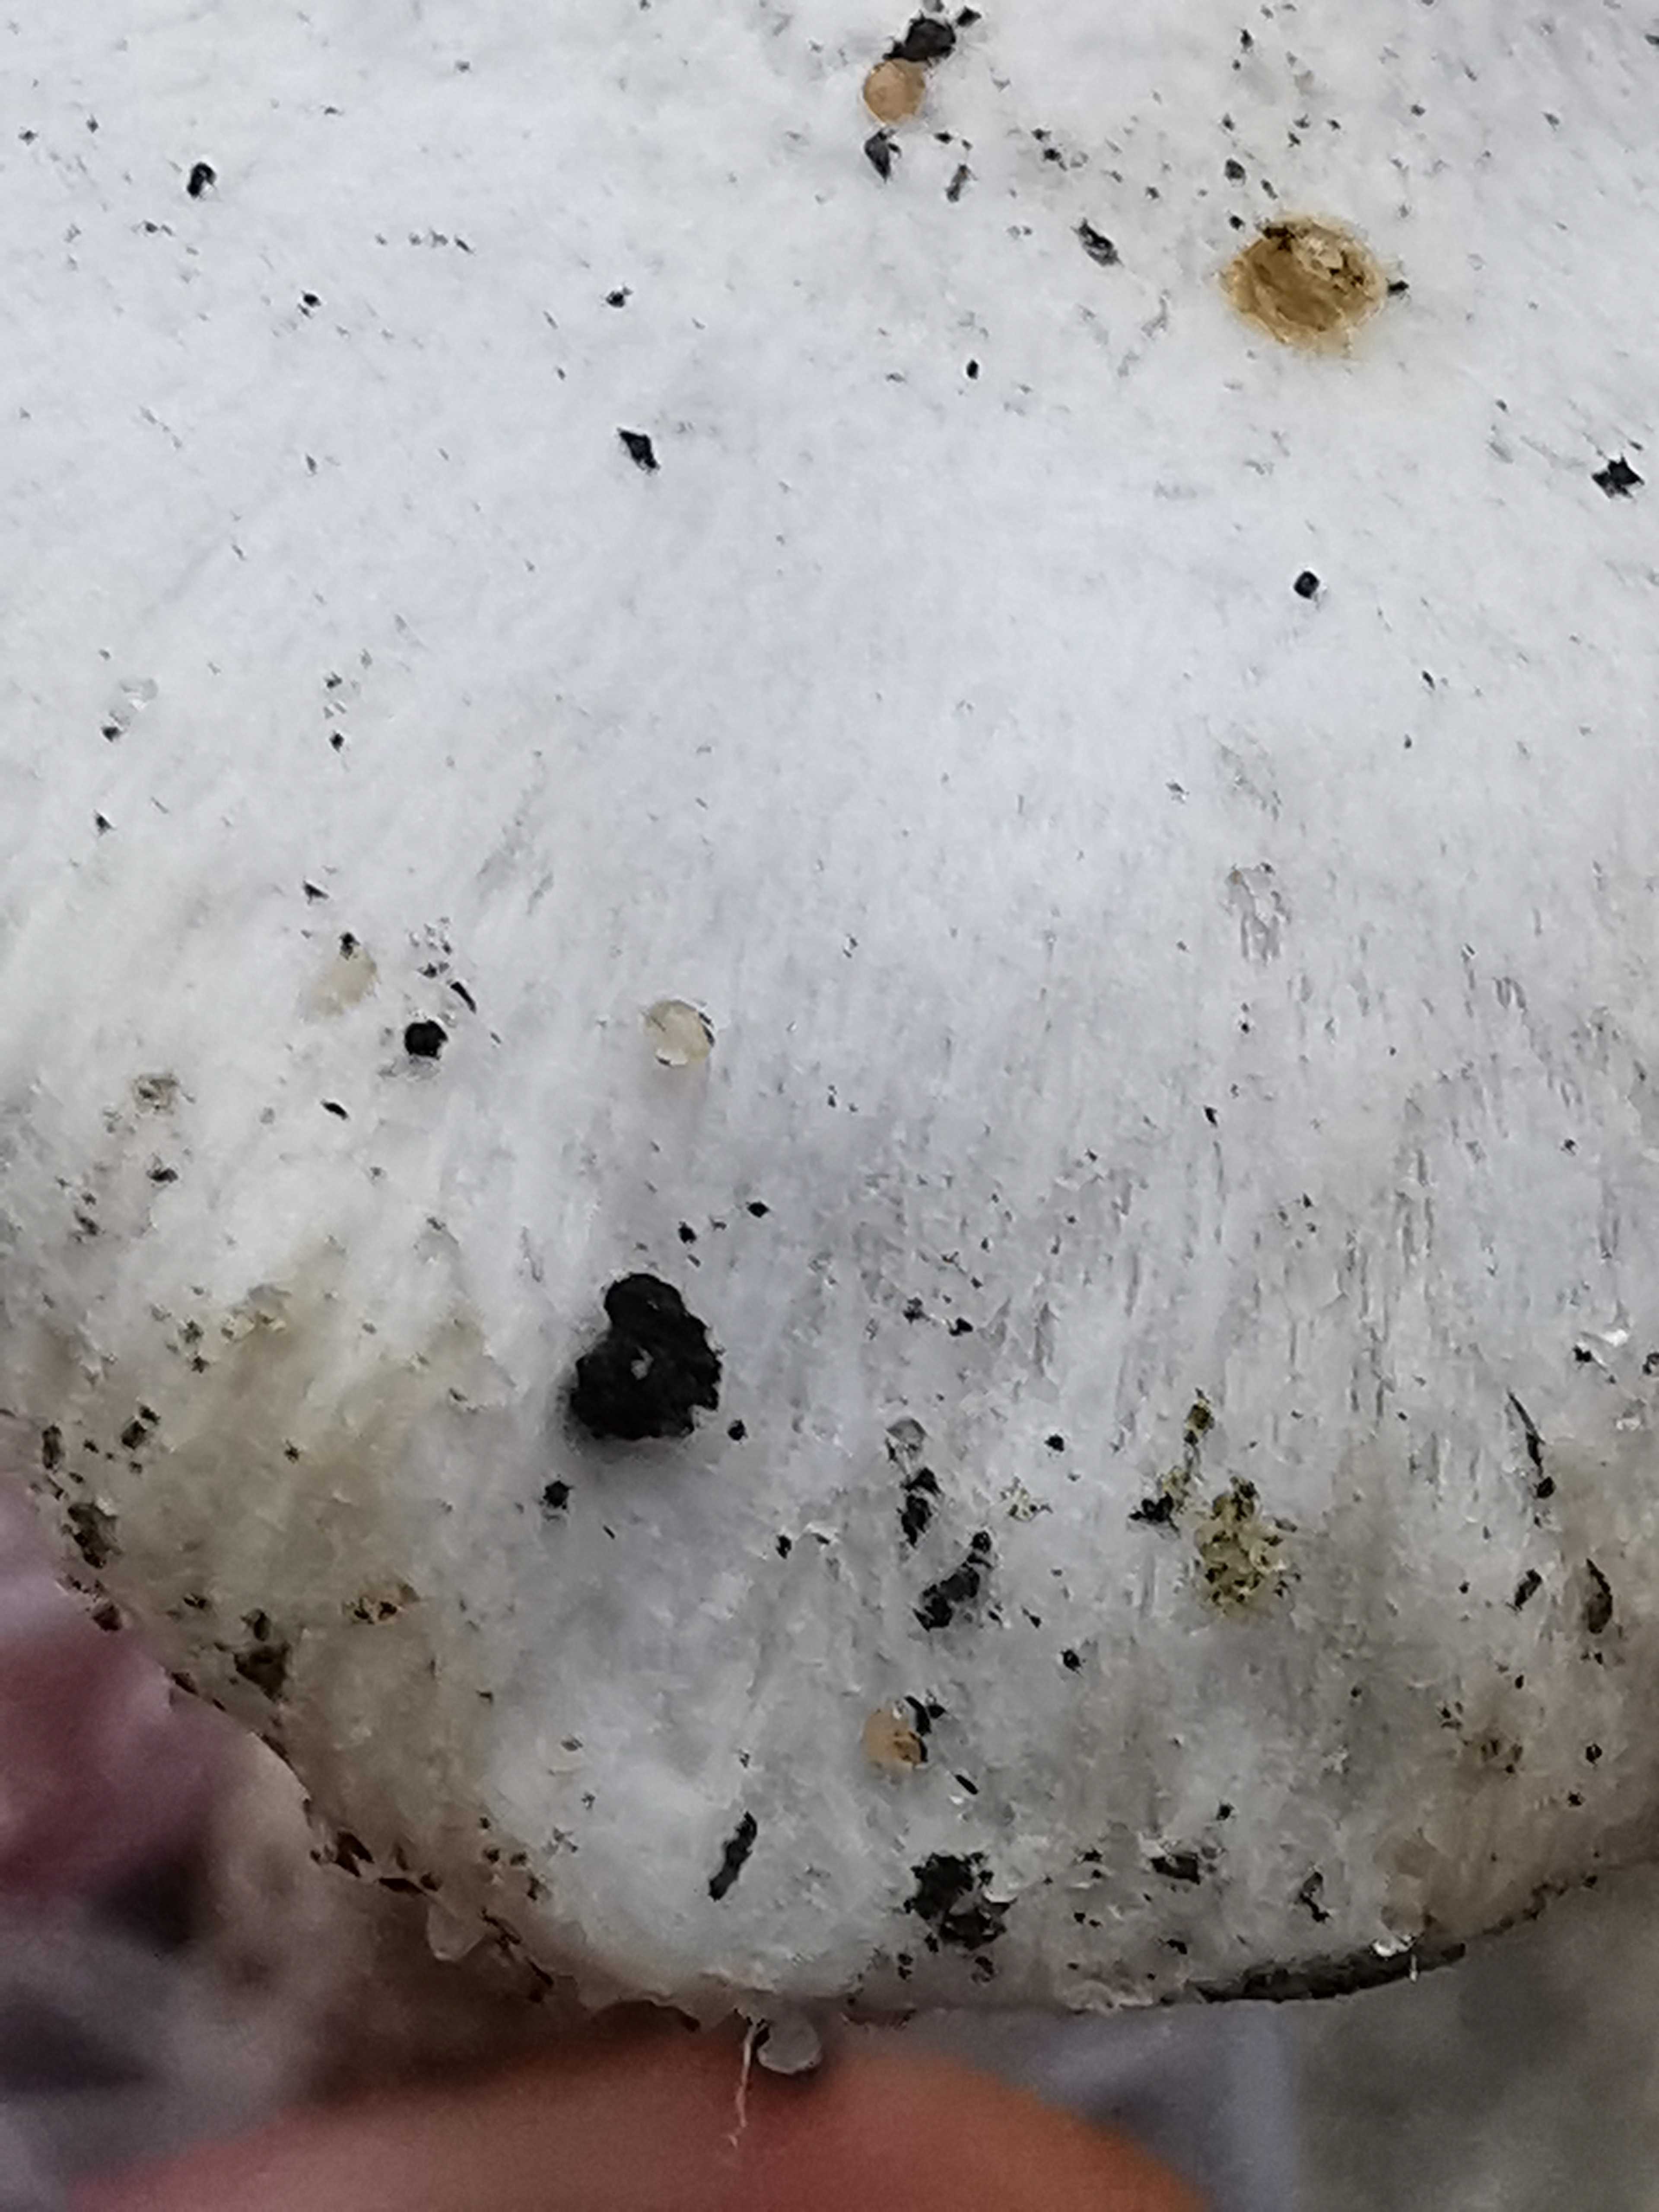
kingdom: Fungi
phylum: Basidiomycota
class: Agaricomycetes
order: Agaricales
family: Inocybaceae
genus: Inocybe
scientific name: Inocybe
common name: almindelig trævlhat
